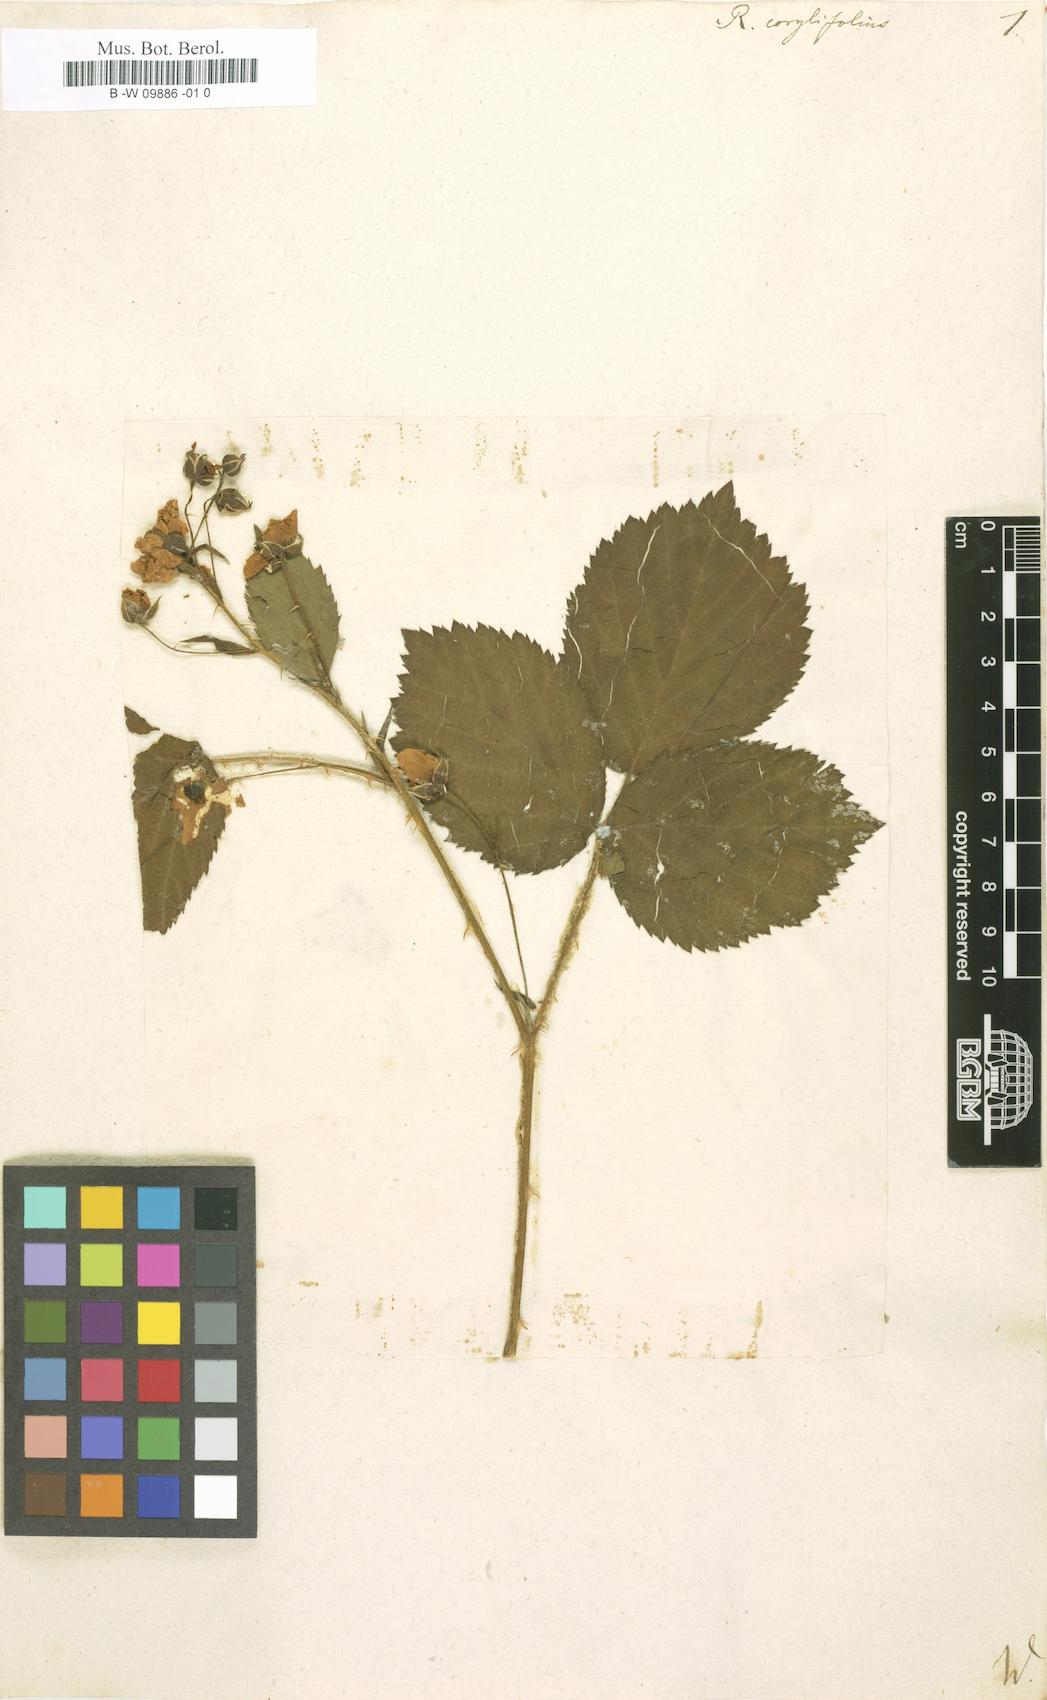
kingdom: Plantae
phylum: Tracheophyta
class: Magnoliopsida
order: Rosales
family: Rosaceae
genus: Rubus
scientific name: Rubus
